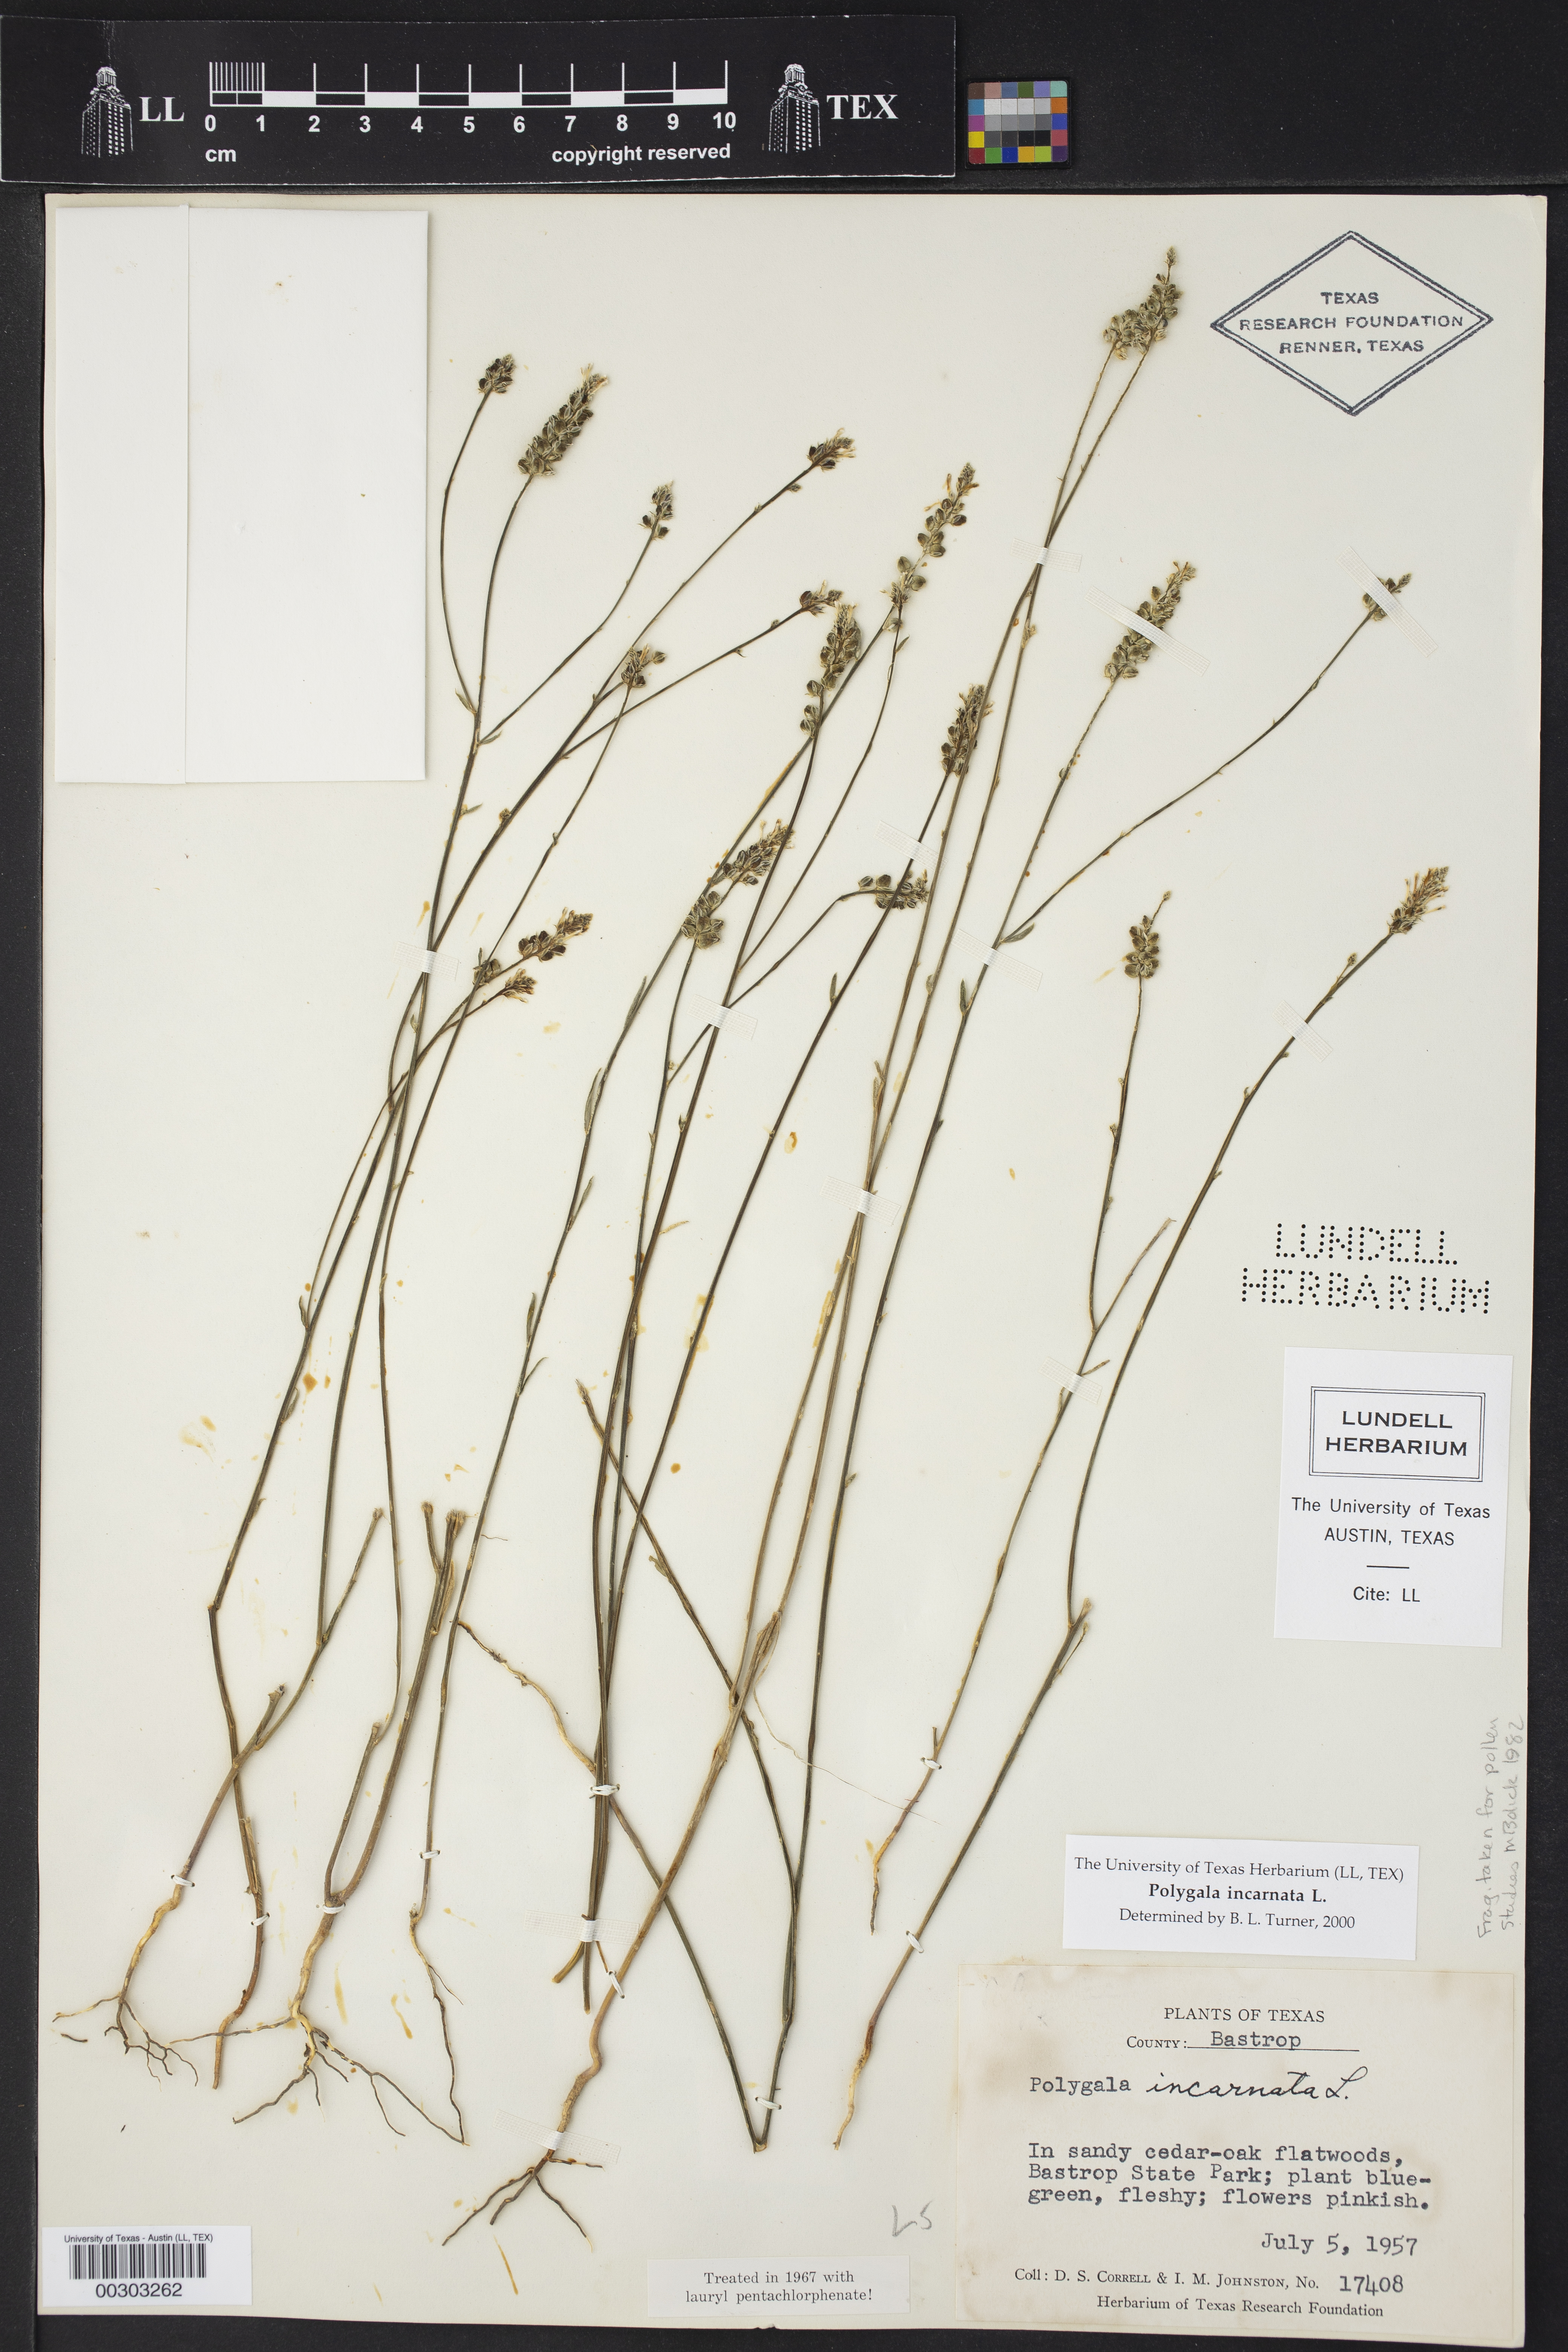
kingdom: Plantae
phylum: Tracheophyta
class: Magnoliopsida
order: Fabales
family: Polygalaceae
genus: Polygala
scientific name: Polygala incarnata
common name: Pink milkwort
